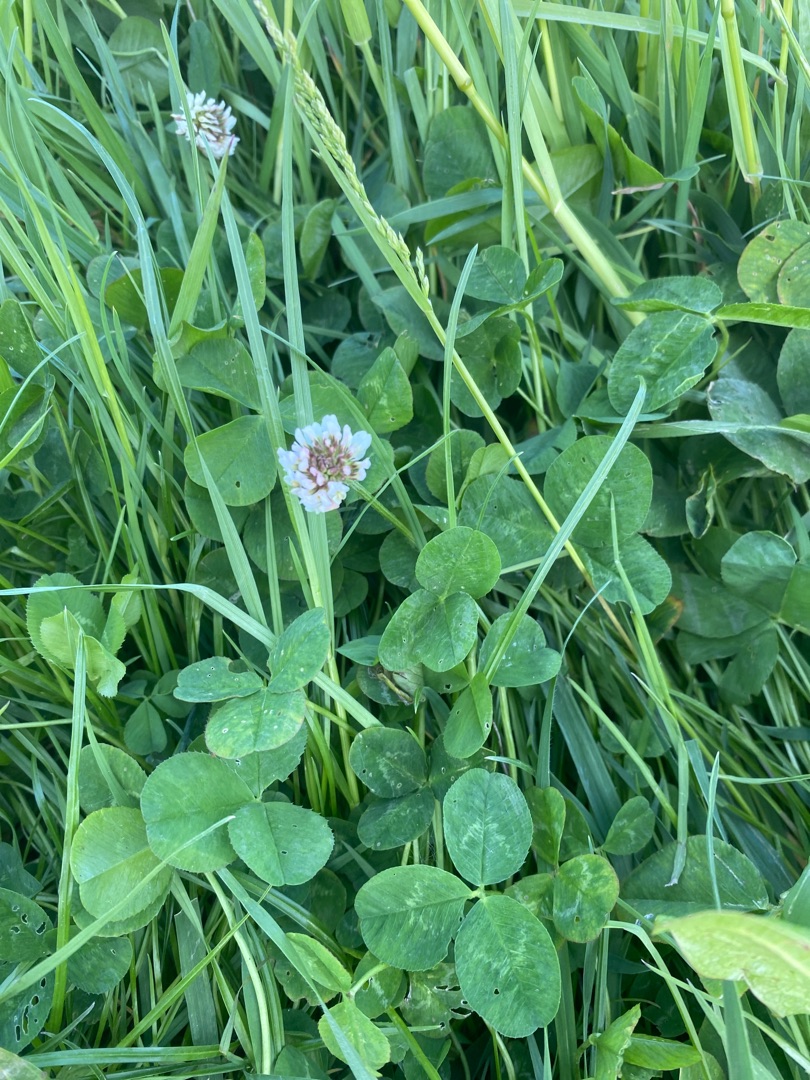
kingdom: Plantae
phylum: Tracheophyta
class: Magnoliopsida
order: Fabales
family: Fabaceae
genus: Trifolium
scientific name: Trifolium repens
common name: Hvid-kløver
